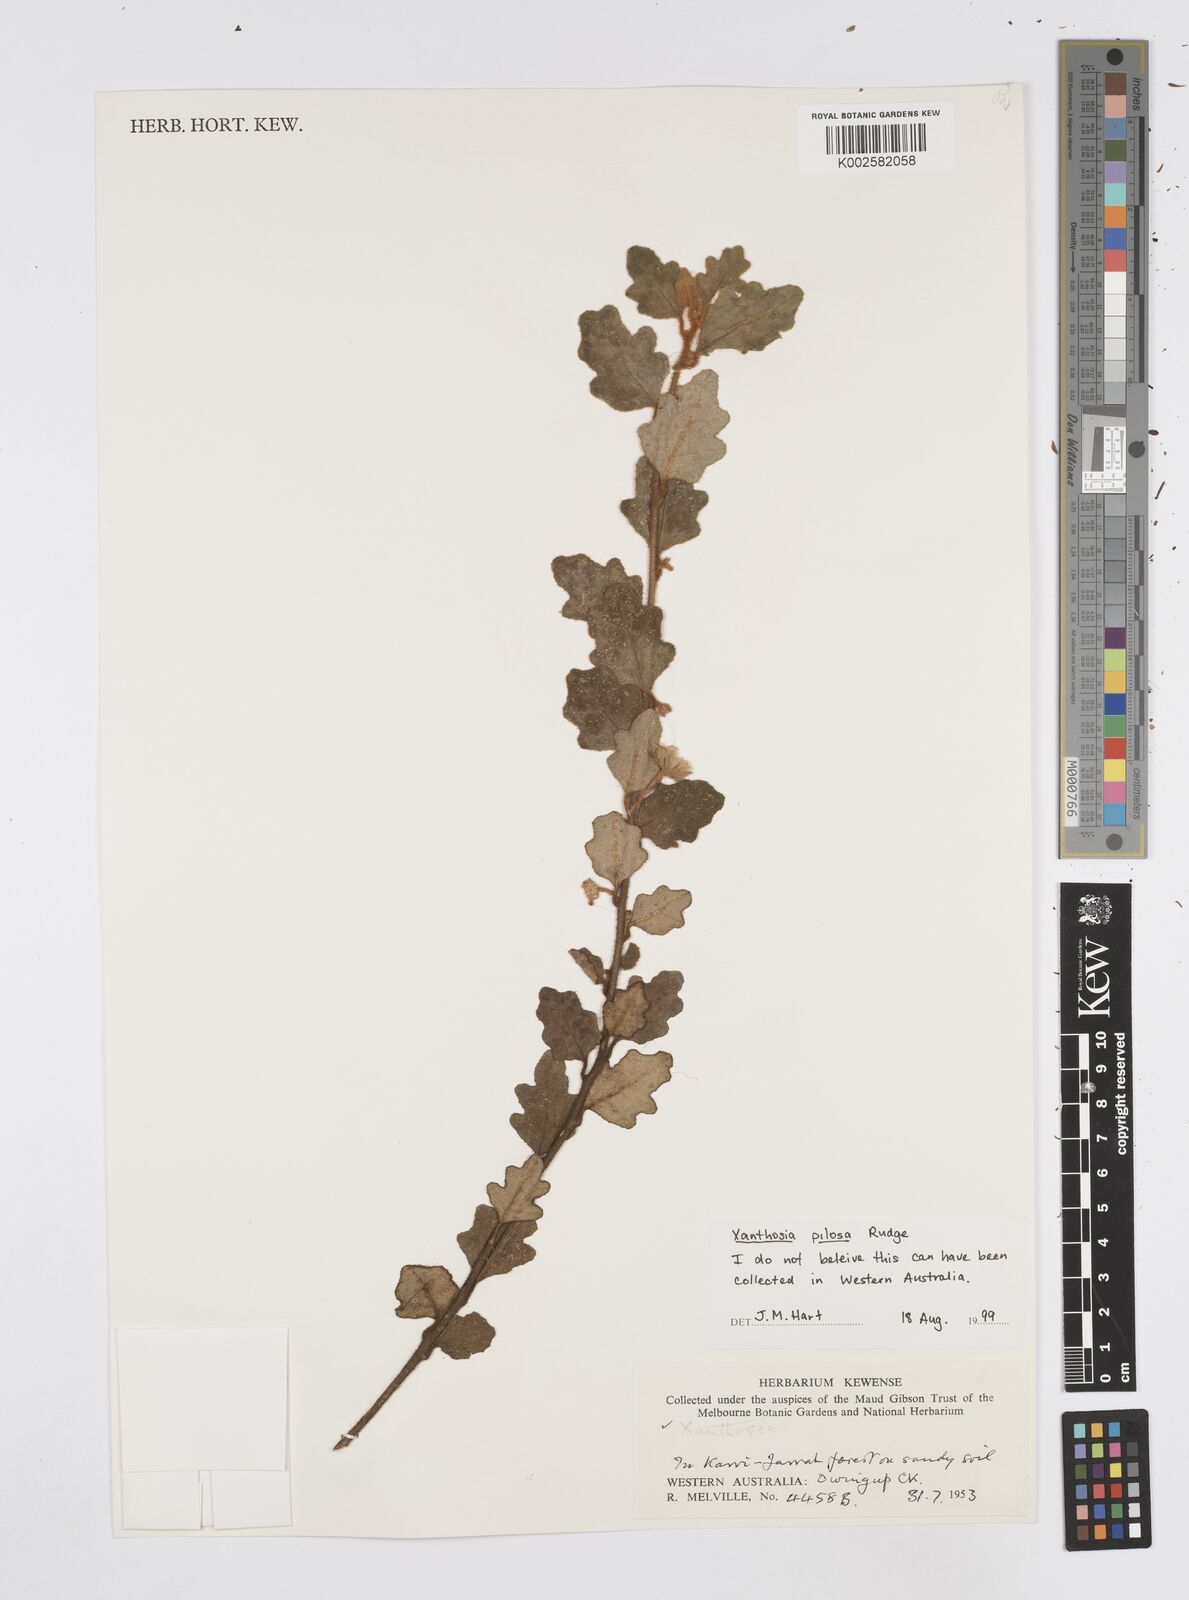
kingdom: Plantae
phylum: Tracheophyta
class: Magnoliopsida
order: Apiales
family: Apiaceae
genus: Xanthosia
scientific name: Xanthosia pilosa
